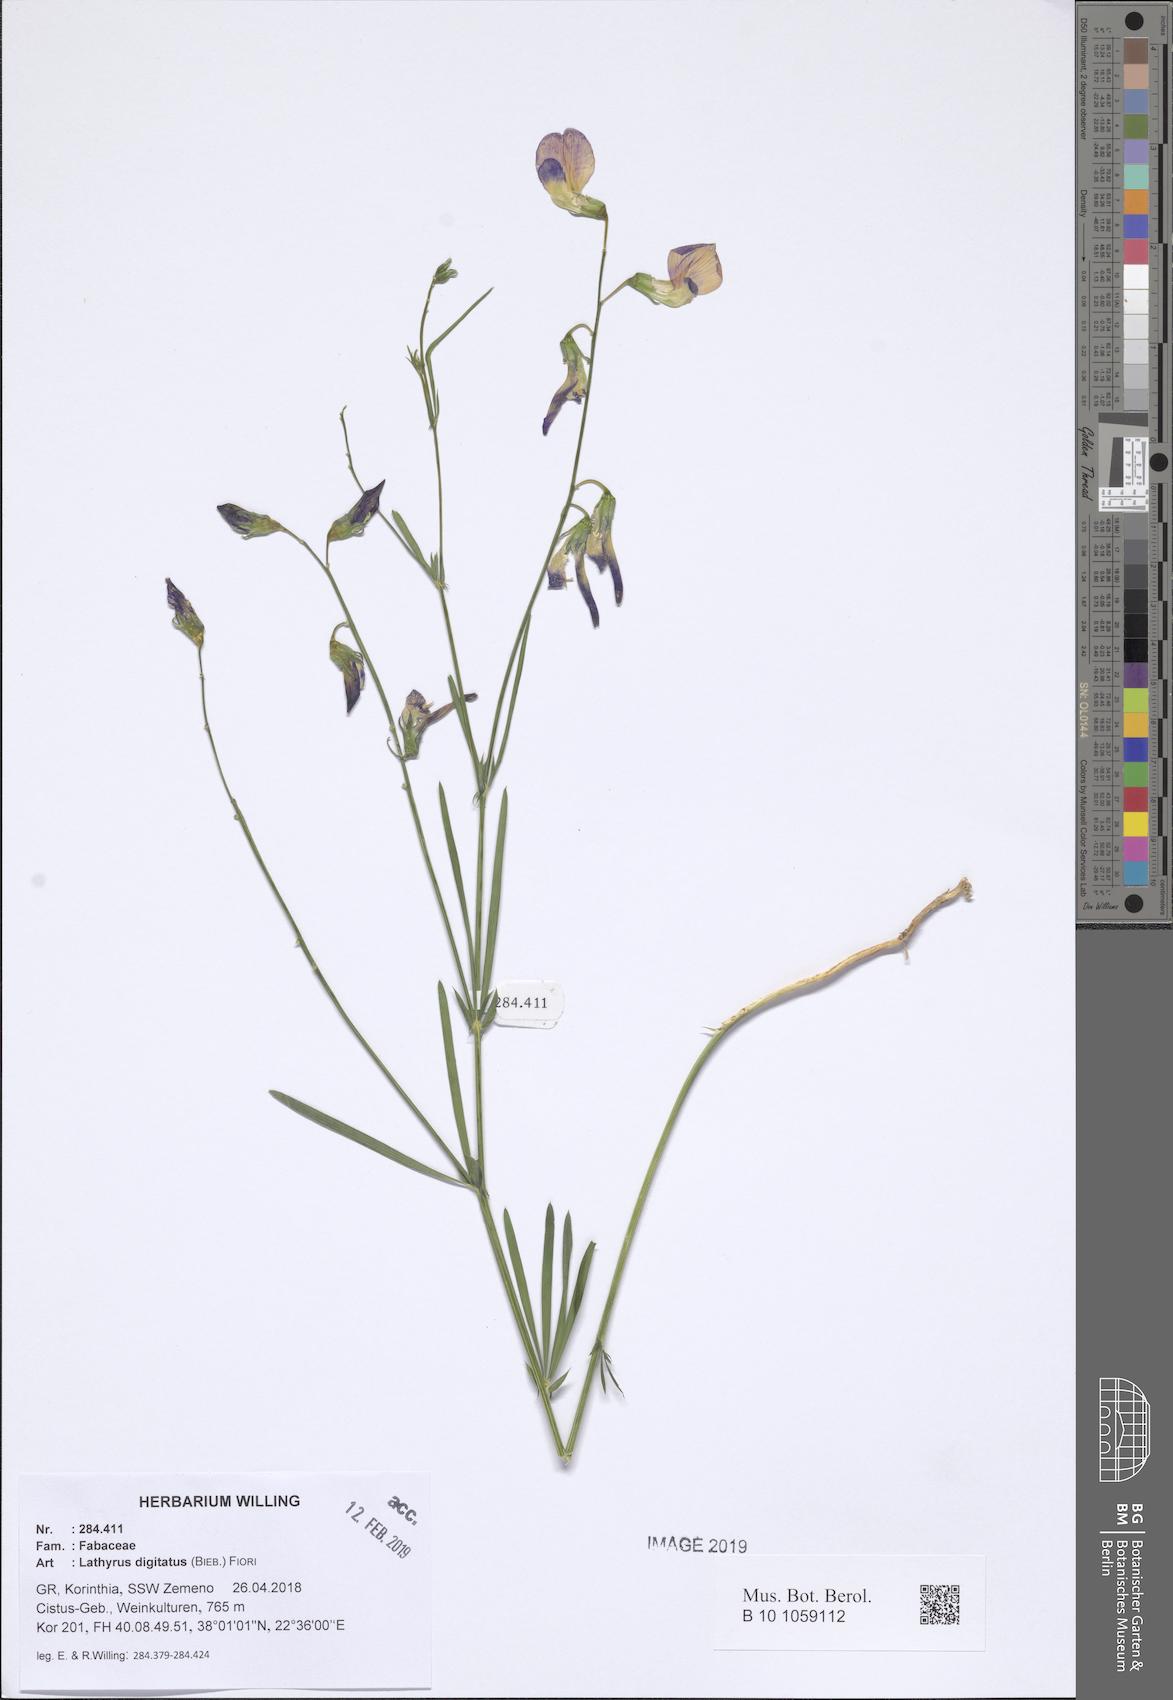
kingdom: Plantae
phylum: Tracheophyta
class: Magnoliopsida
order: Fabales
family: Fabaceae
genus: Lathyrus
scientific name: Lathyrus digitatus
